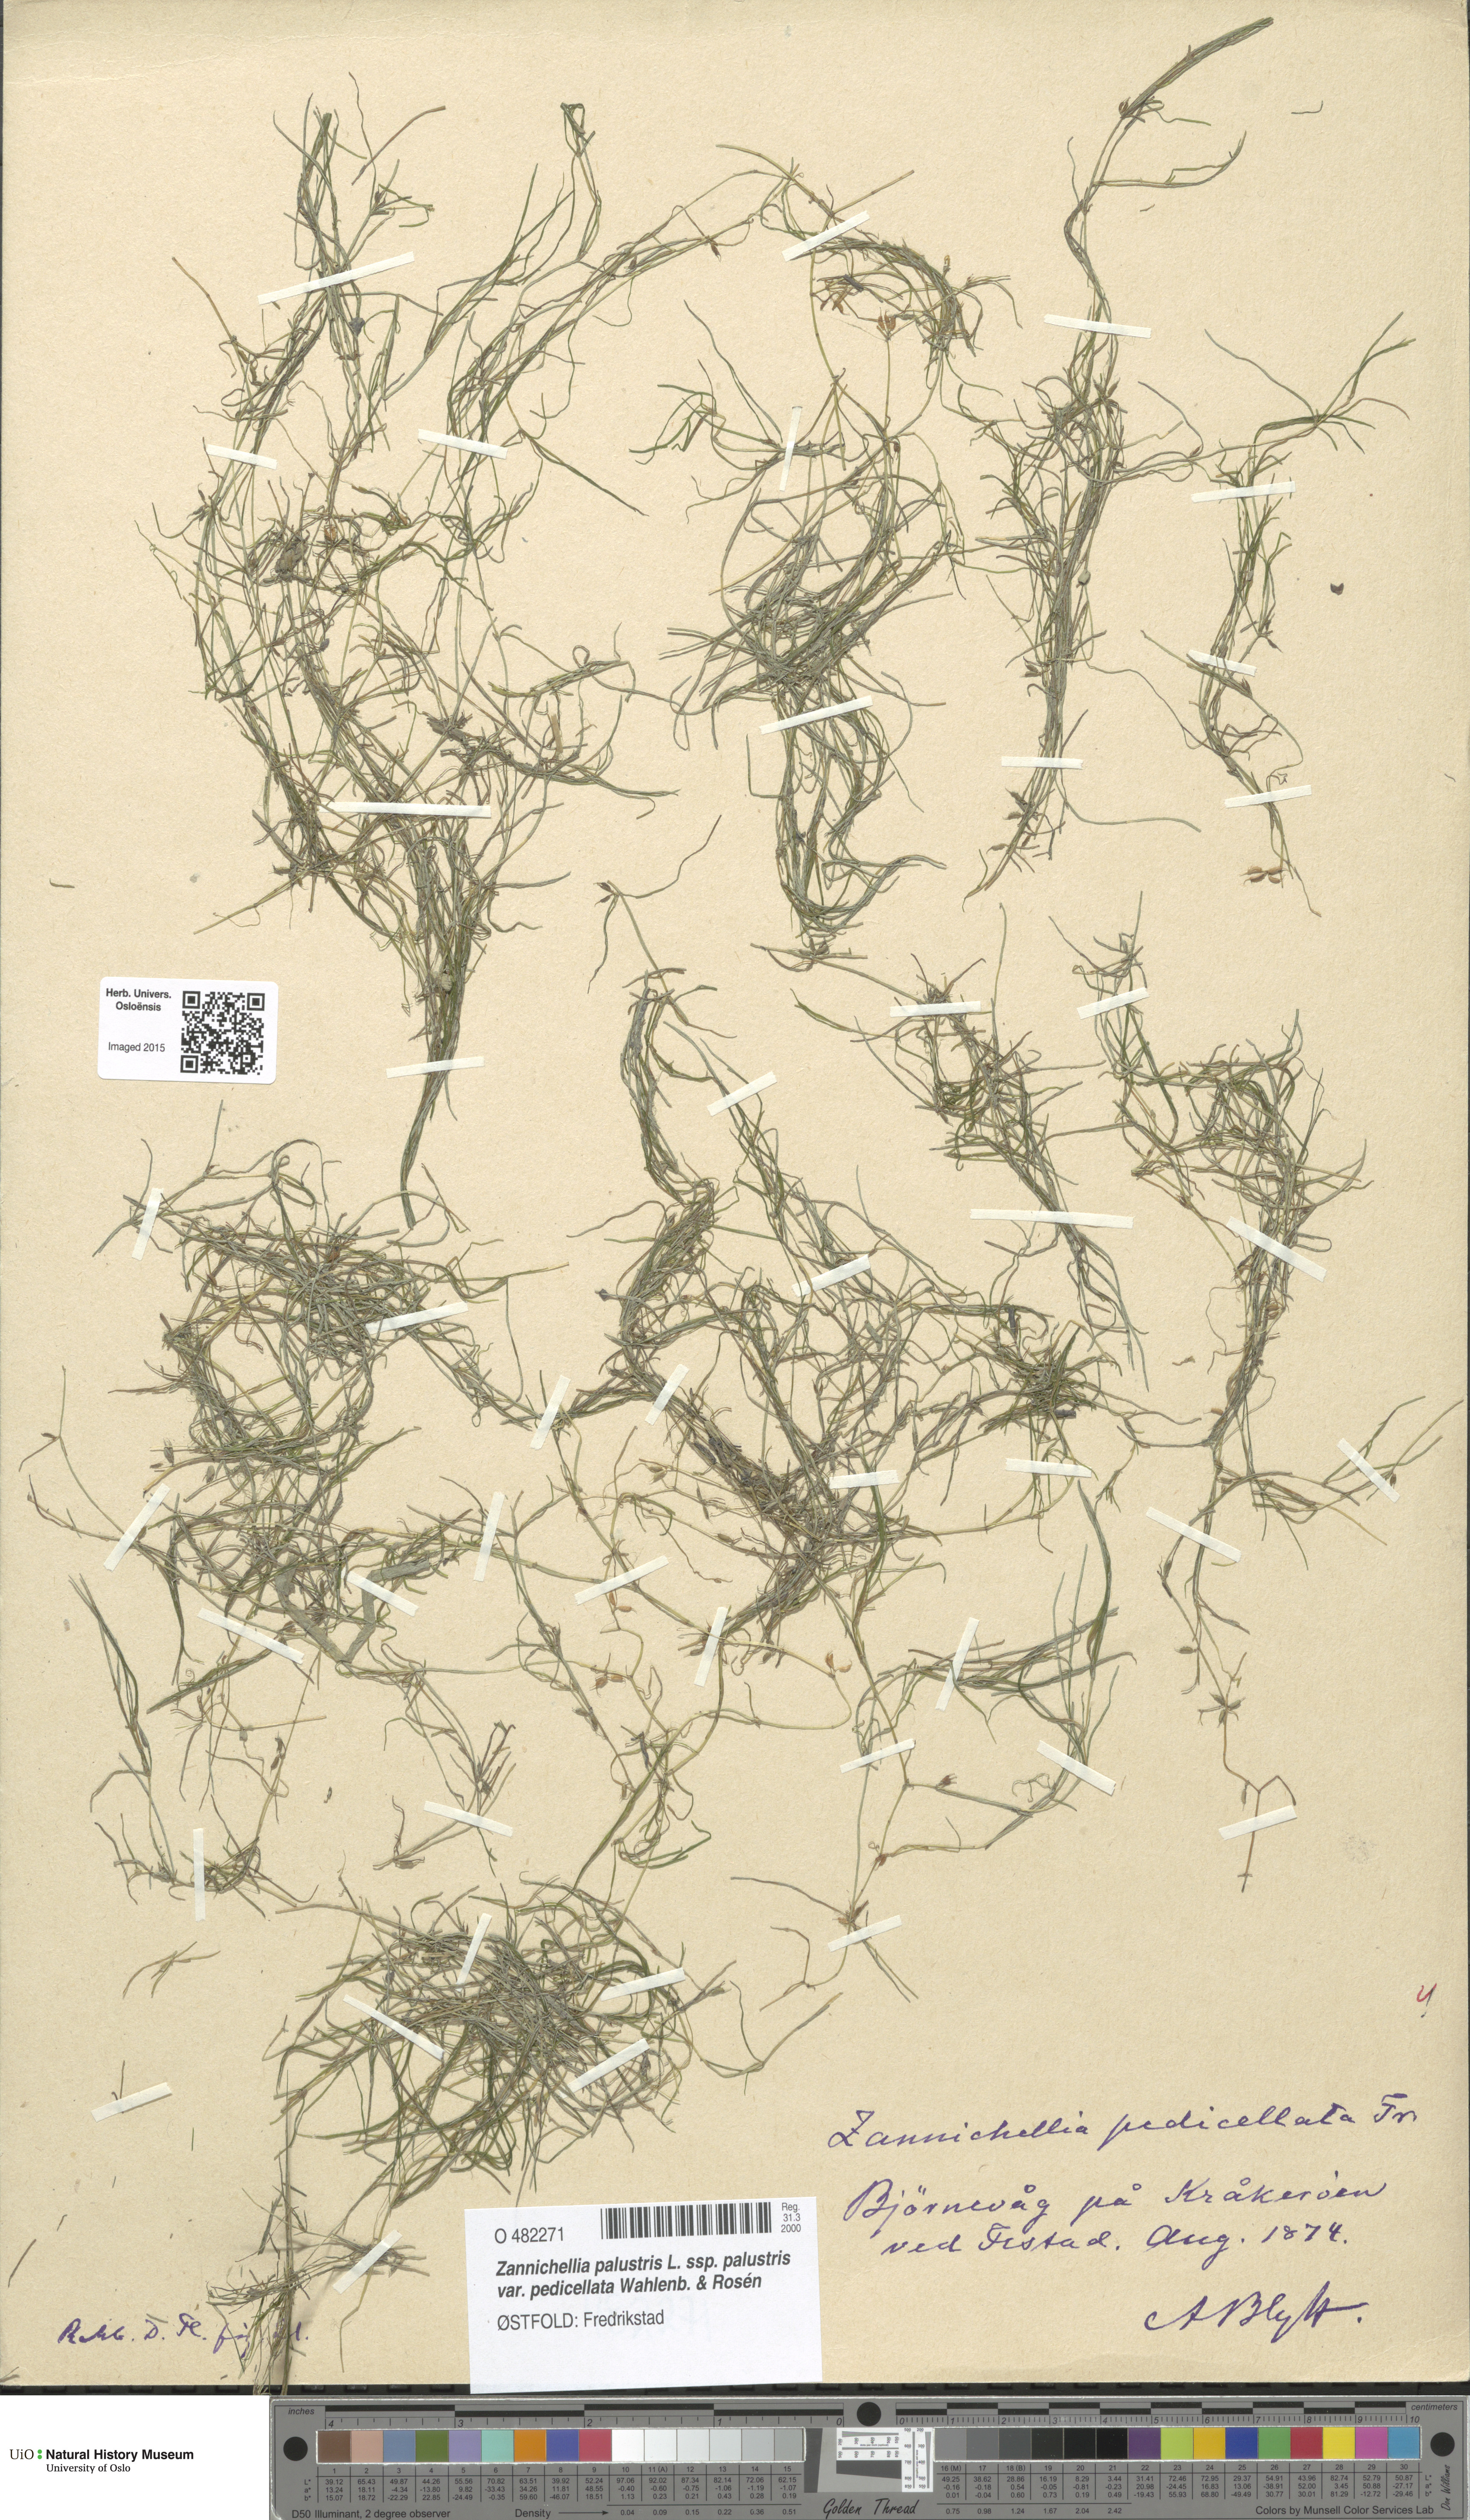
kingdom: Plantae
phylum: Tracheophyta
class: Liliopsida
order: Alismatales
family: Potamogetonaceae
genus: Zannichellia
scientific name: Zannichellia palustris
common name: Horned pondweed
